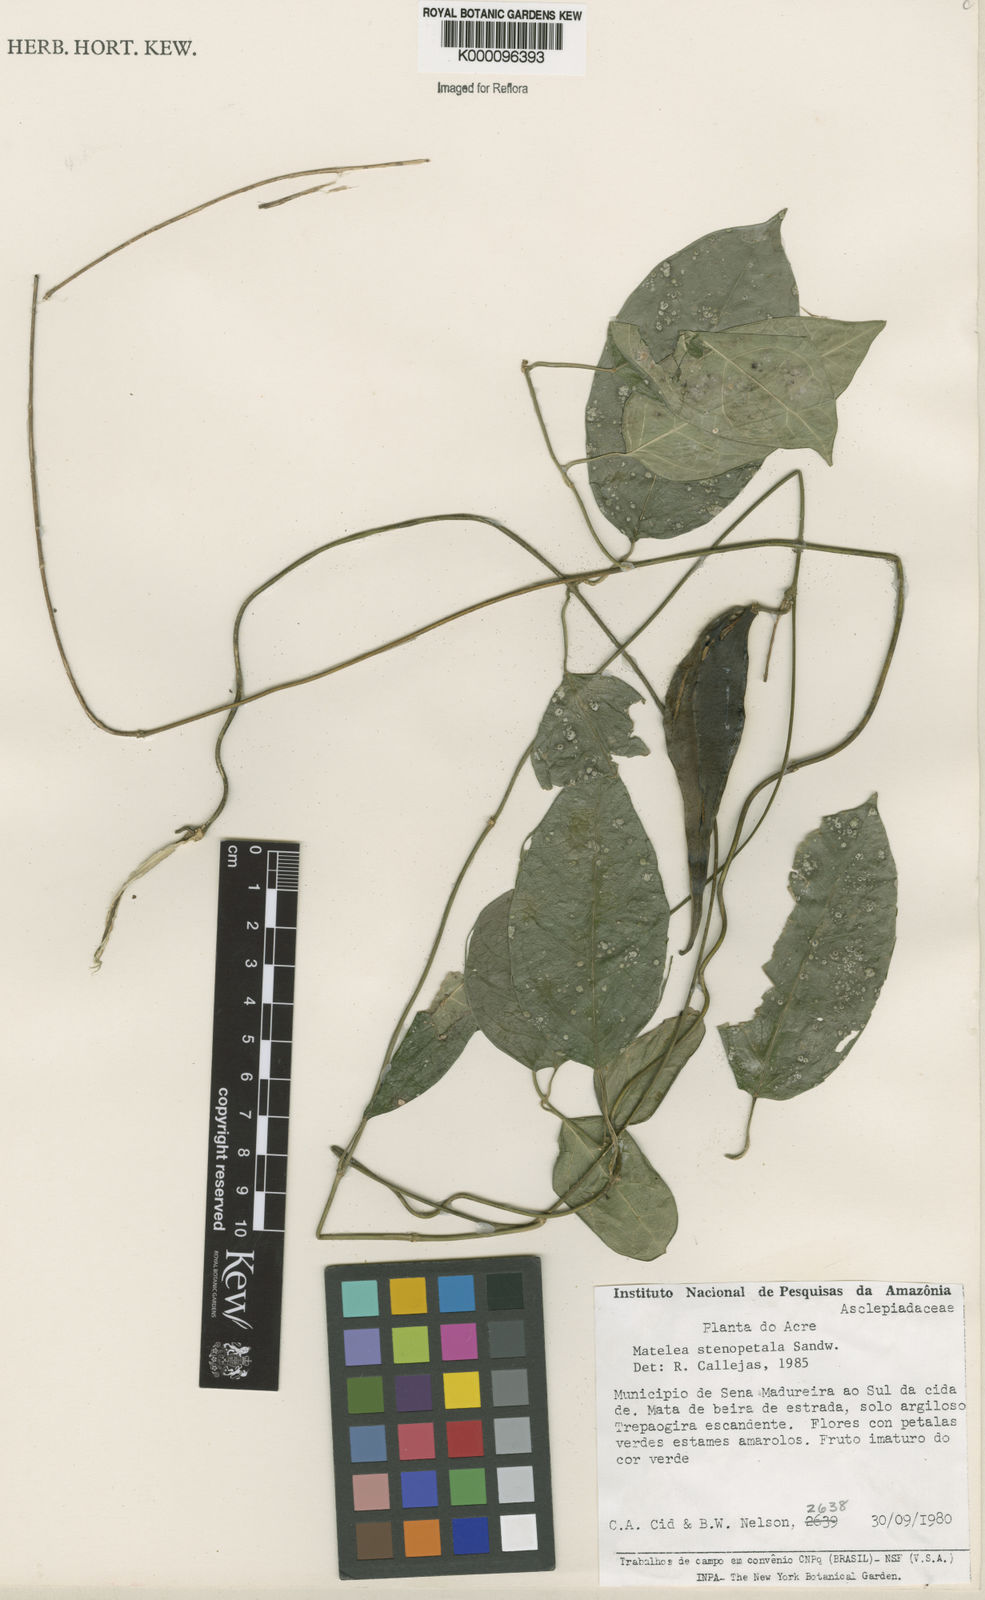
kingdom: Plantae
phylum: Tracheophyta
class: Magnoliopsida
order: Gentianales
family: Apocynaceae
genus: Matelea
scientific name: Matelea stenopetala
